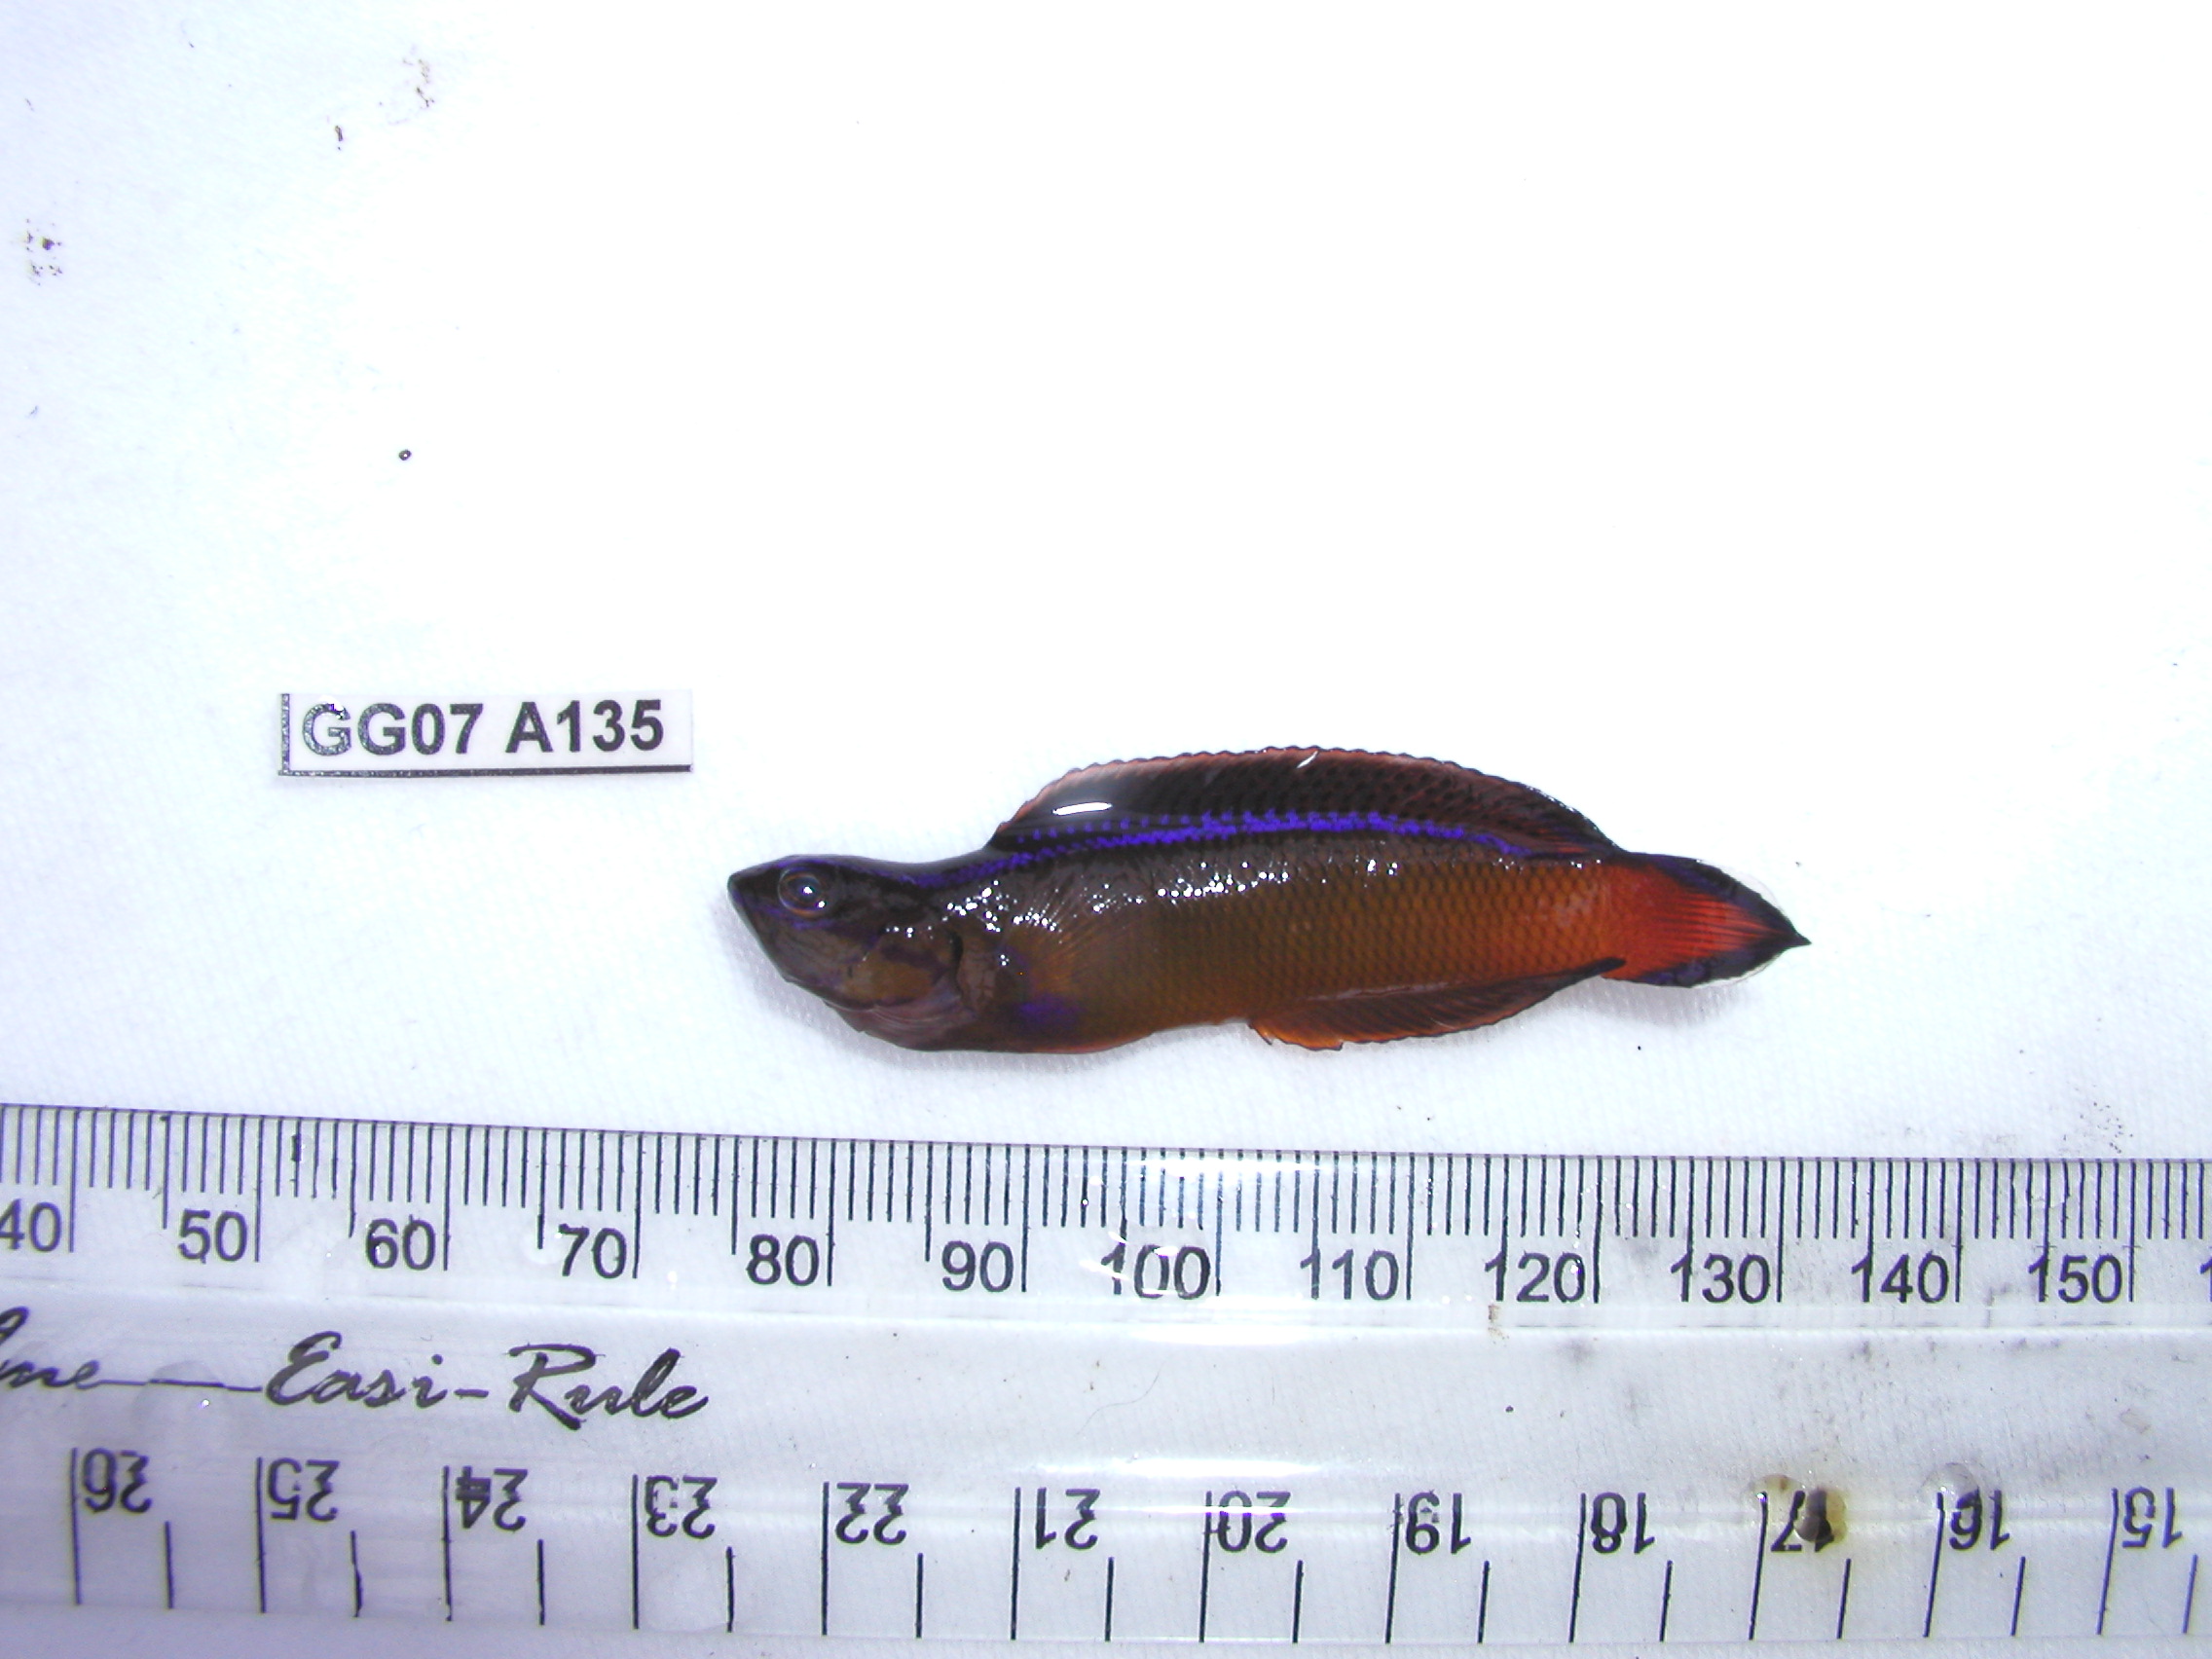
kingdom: Animalia
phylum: Chordata
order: Perciformes
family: Pseudochromidae
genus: Pseudochromis
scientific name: Pseudochromis dutoiti
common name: Dutoiti
